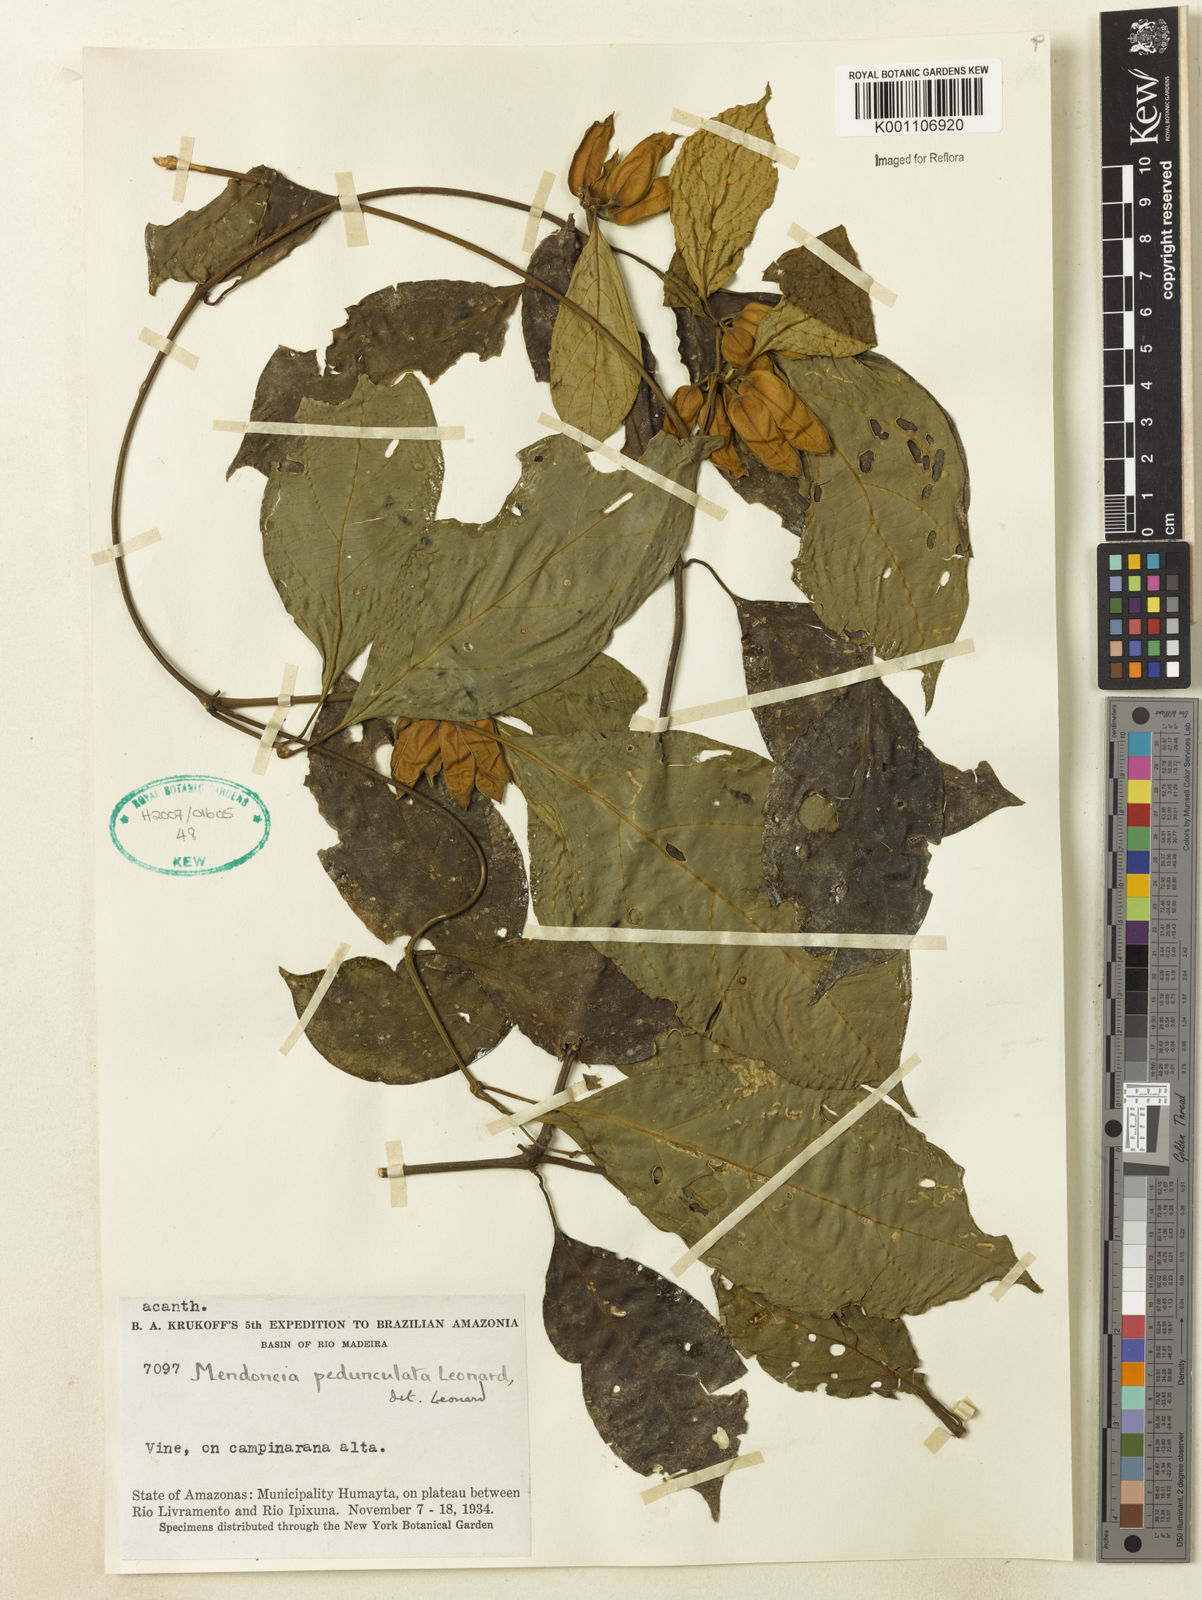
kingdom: Plantae
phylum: Tracheophyta
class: Magnoliopsida
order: Lamiales
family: Acanthaceae
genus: Mendoncia
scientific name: Mendoncia pedunculata
